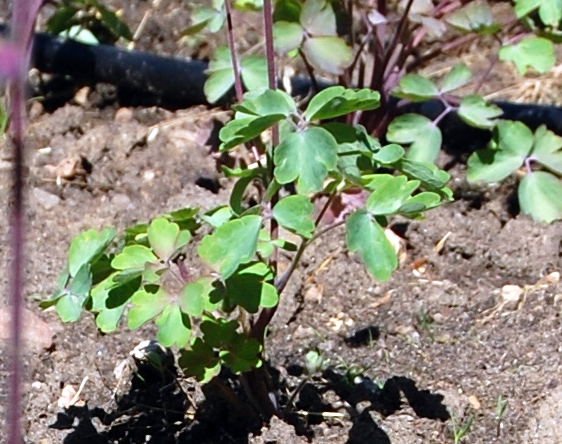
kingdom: Plantae
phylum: Tracheophyta
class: Magnoliopsida
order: Ranunculales
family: Ranunculaceae
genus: Aquilegia
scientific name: Aquilegia vulgaris
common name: Columbine
